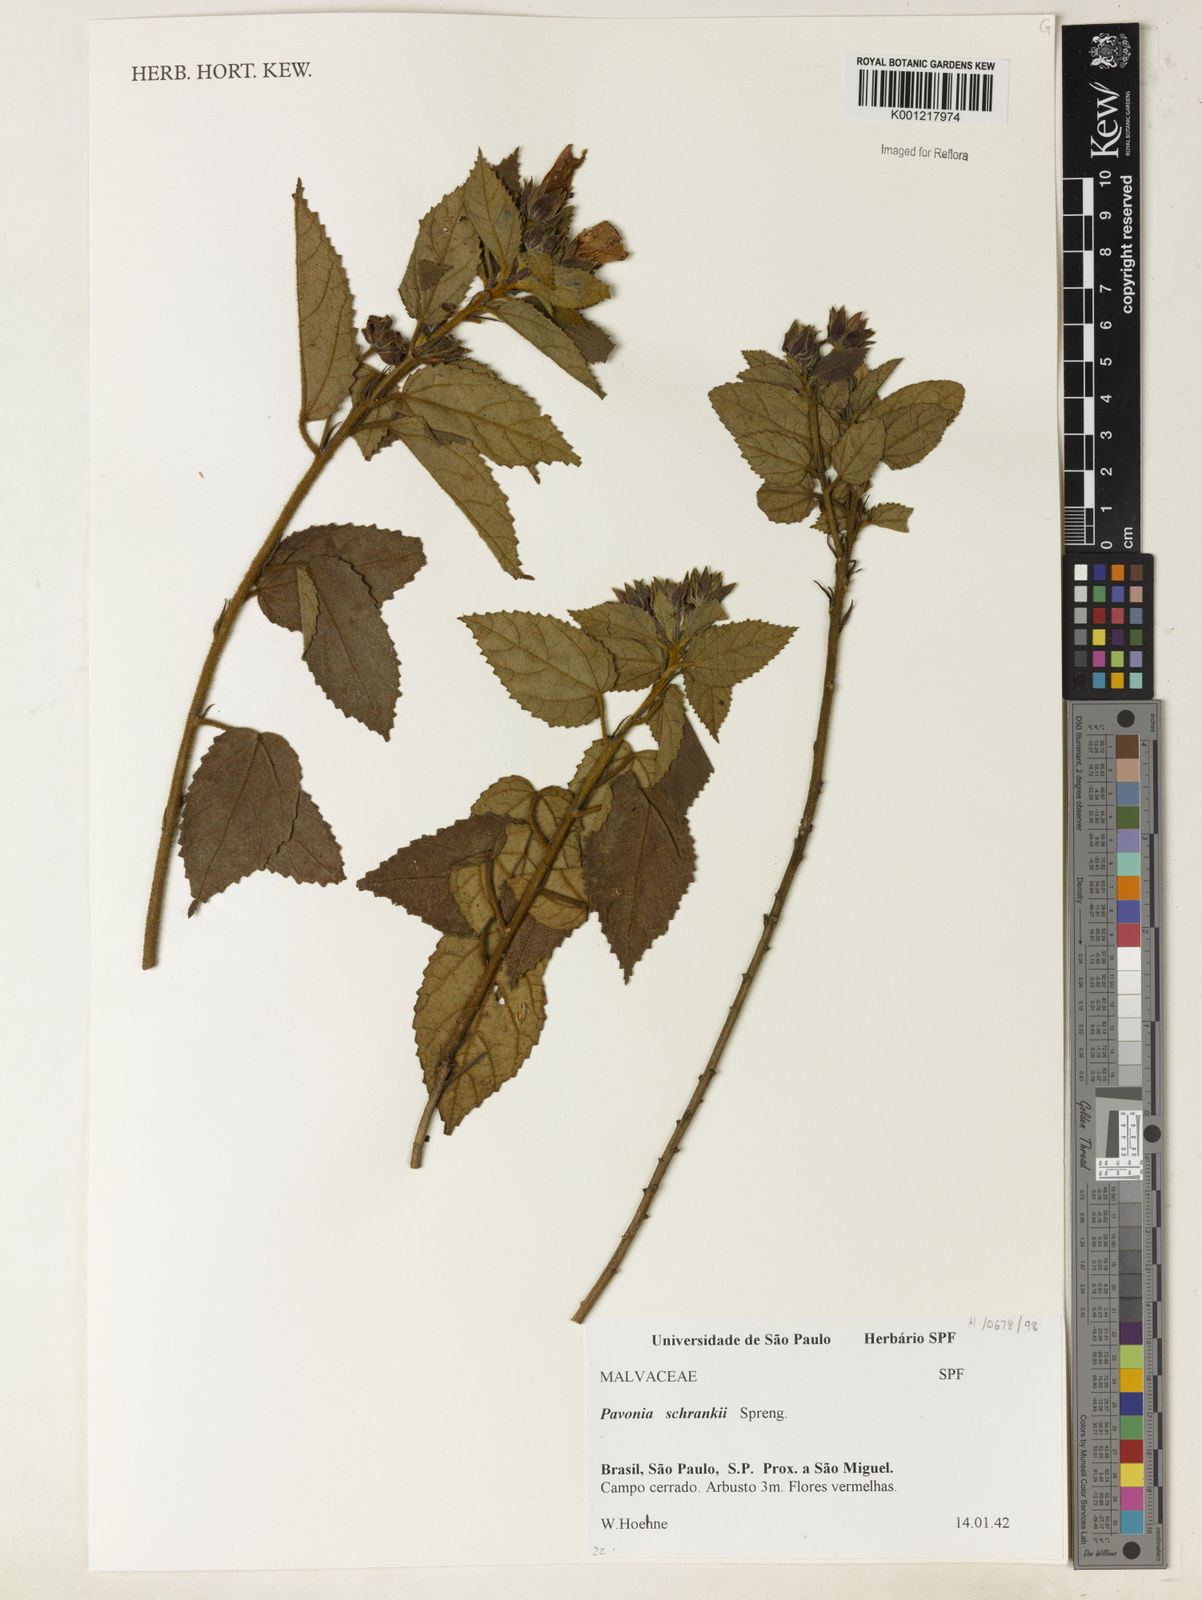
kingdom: Plantae
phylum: Tracheophyta
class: Magnoliopsida
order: Malvales
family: Malvaceae
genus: Pavonia
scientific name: Pavonia schrankii
